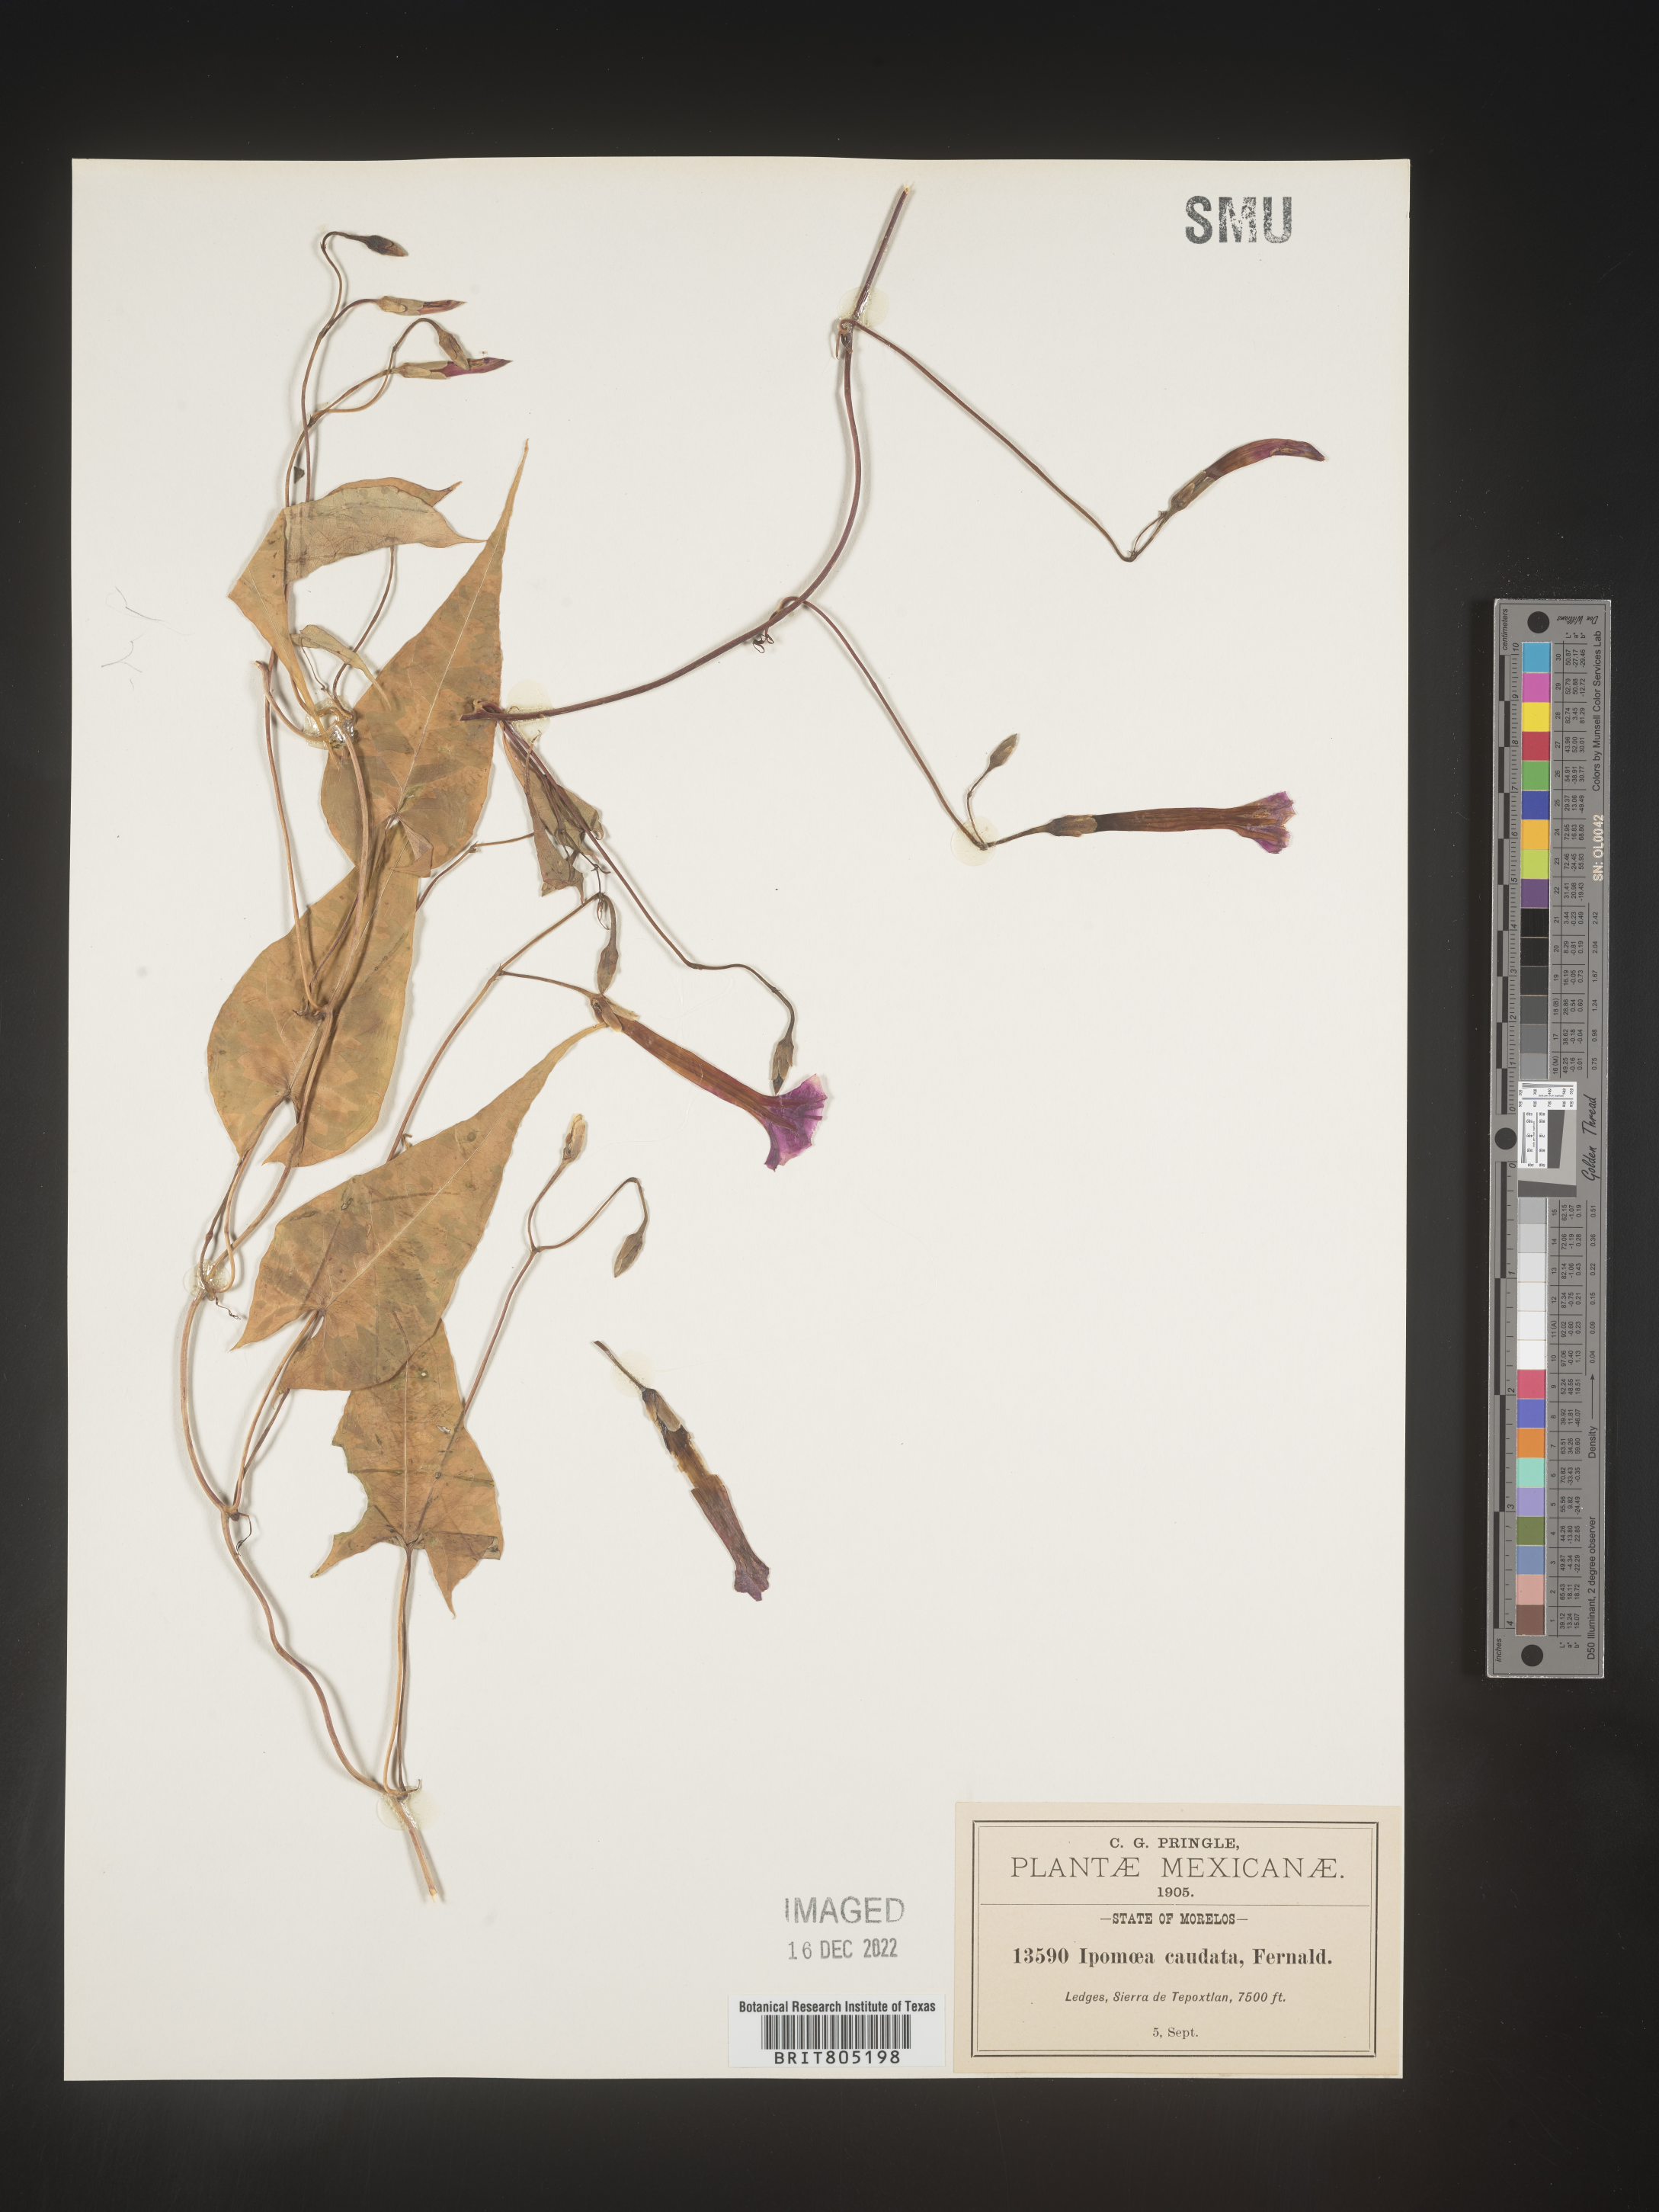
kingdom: Plantae
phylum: Tracheophyta
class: Magnoliopsida
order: Solanales
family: Convolvulaceae
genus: Ipomoea
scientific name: Ipomoea
